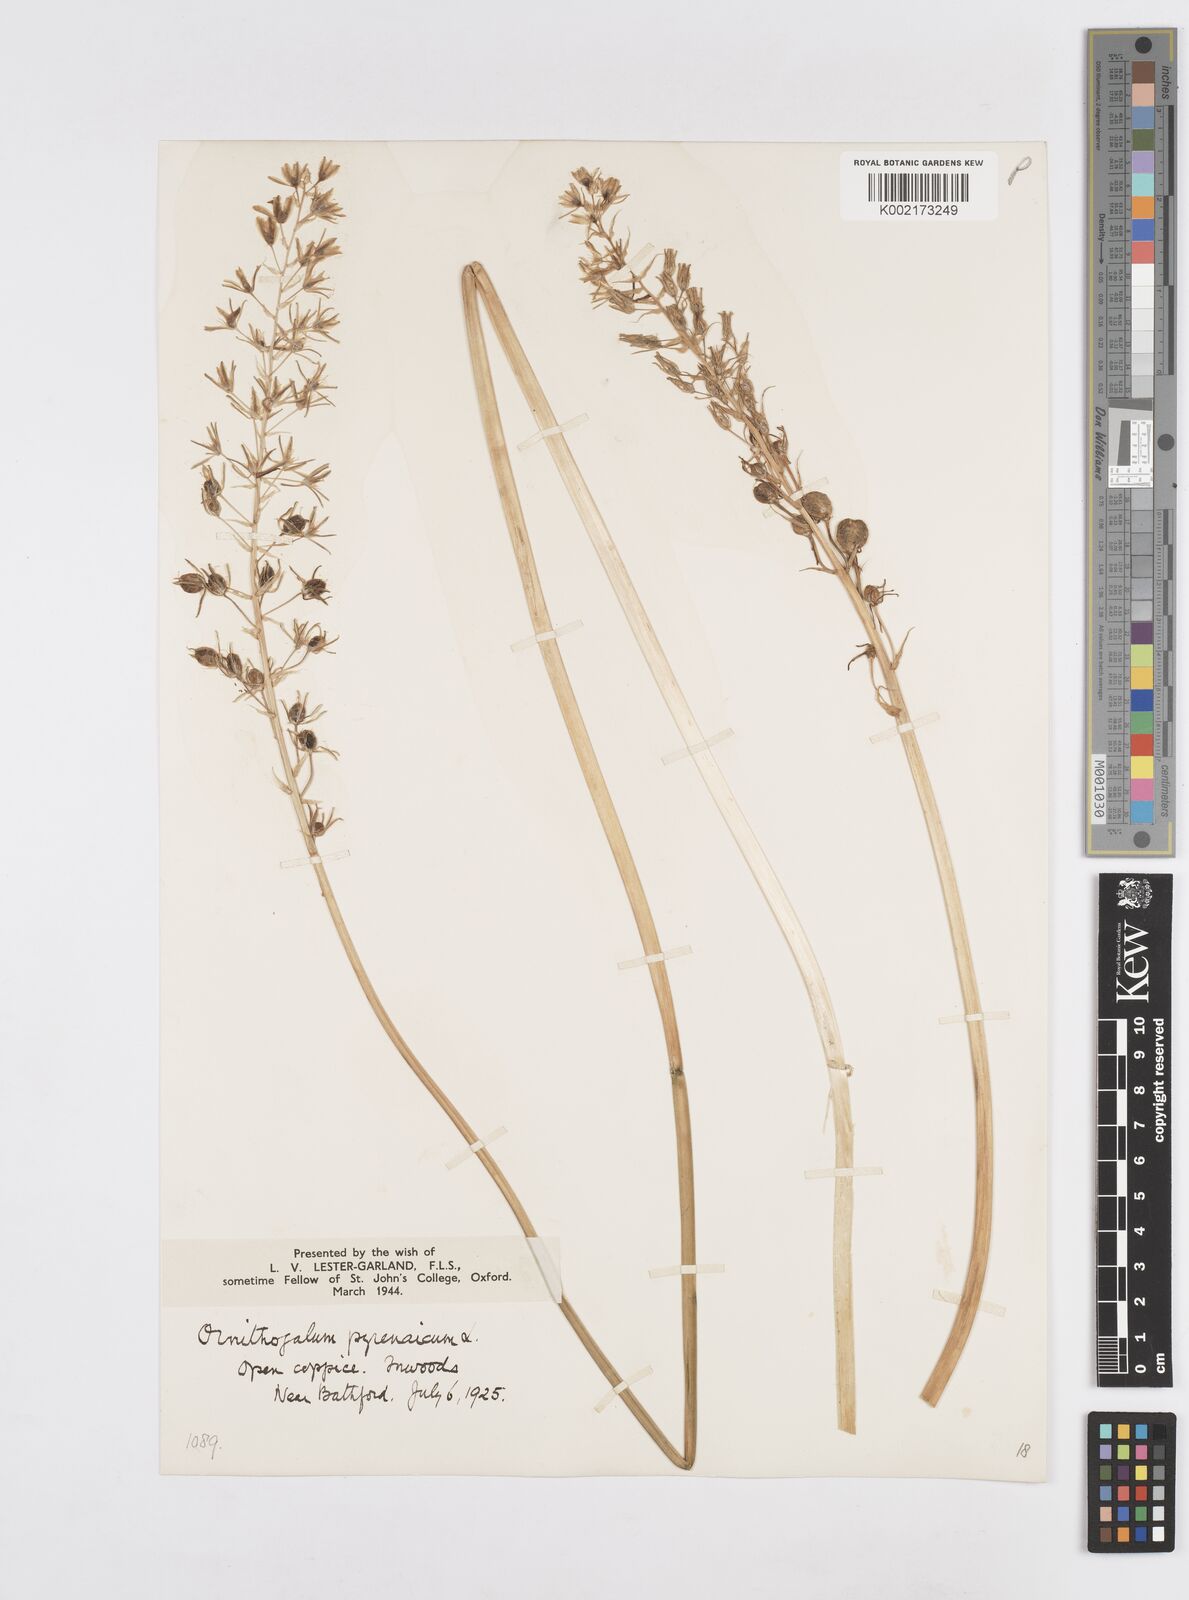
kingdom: Plantae
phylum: Tracheophyta
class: Liliopsida
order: Asparagales
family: Asparagaceae
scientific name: Asparagaceae
